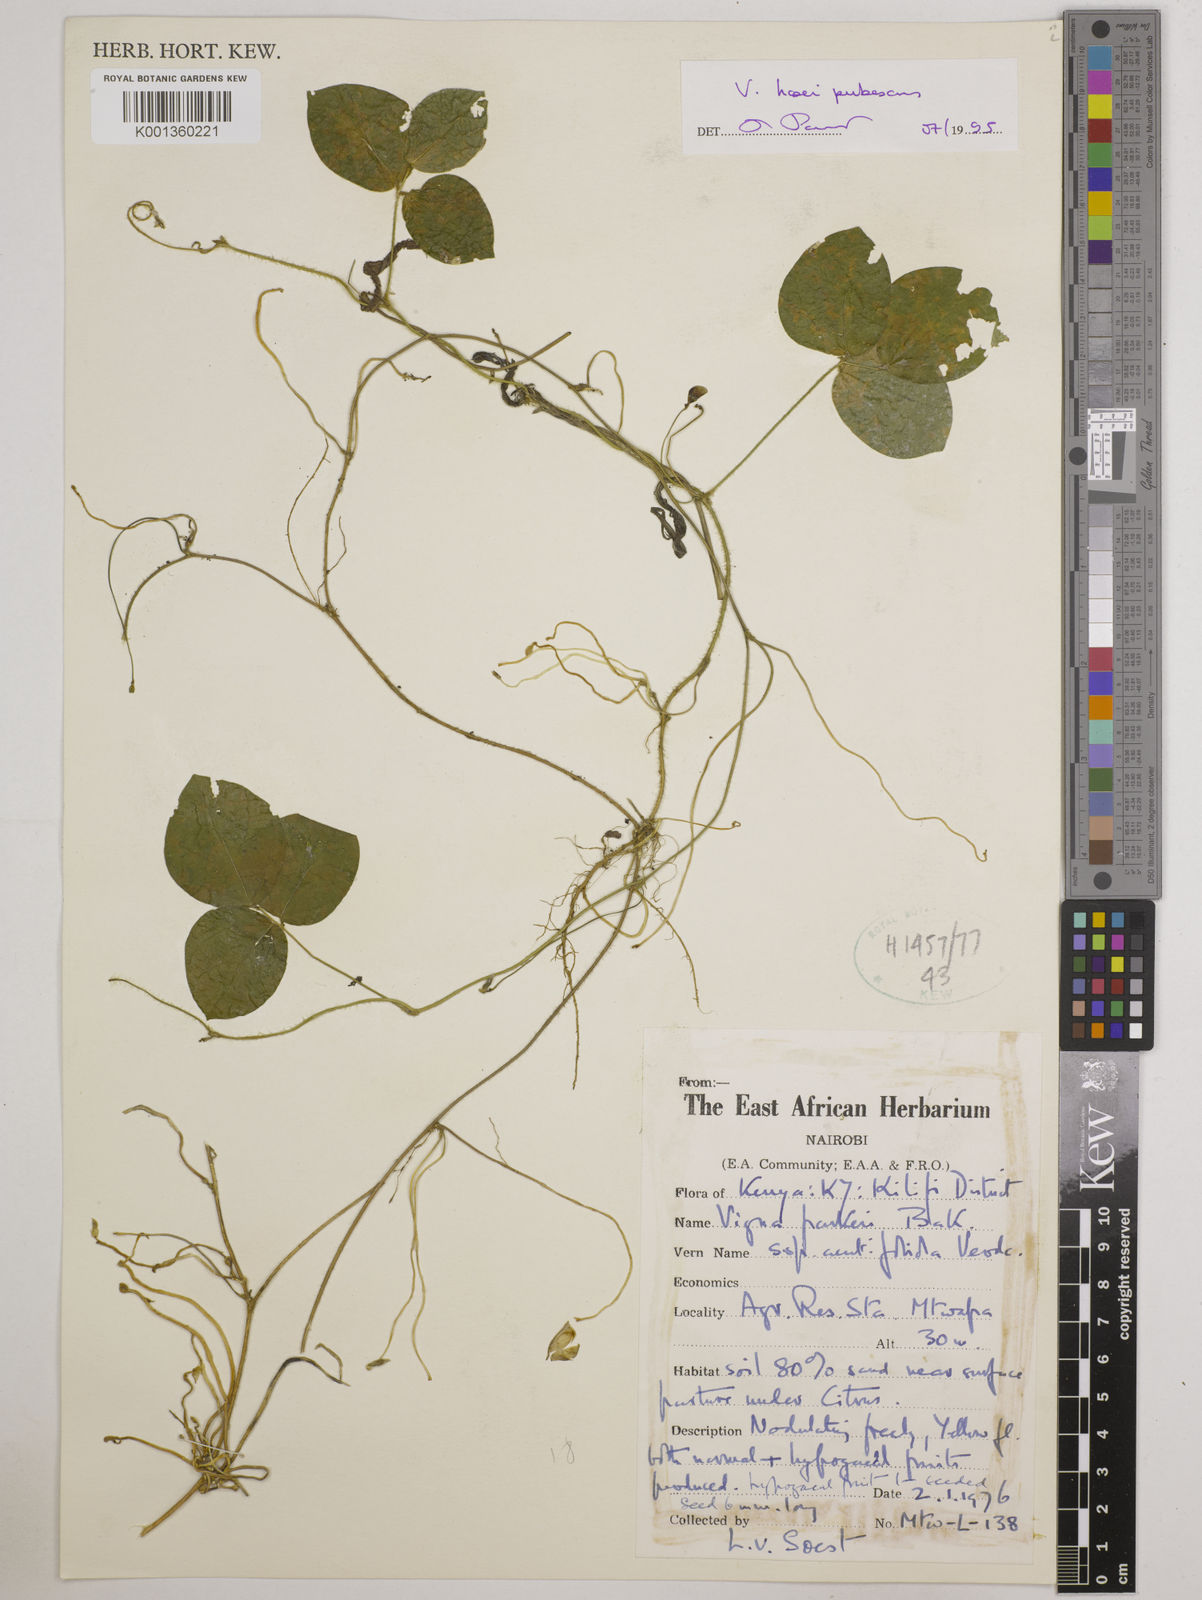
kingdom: Plantae
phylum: Tracheophyta
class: Magnoliopsida
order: Fabales
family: Fabaceae
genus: Vigna
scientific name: Vigna hosei
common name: Sarawak-bean
